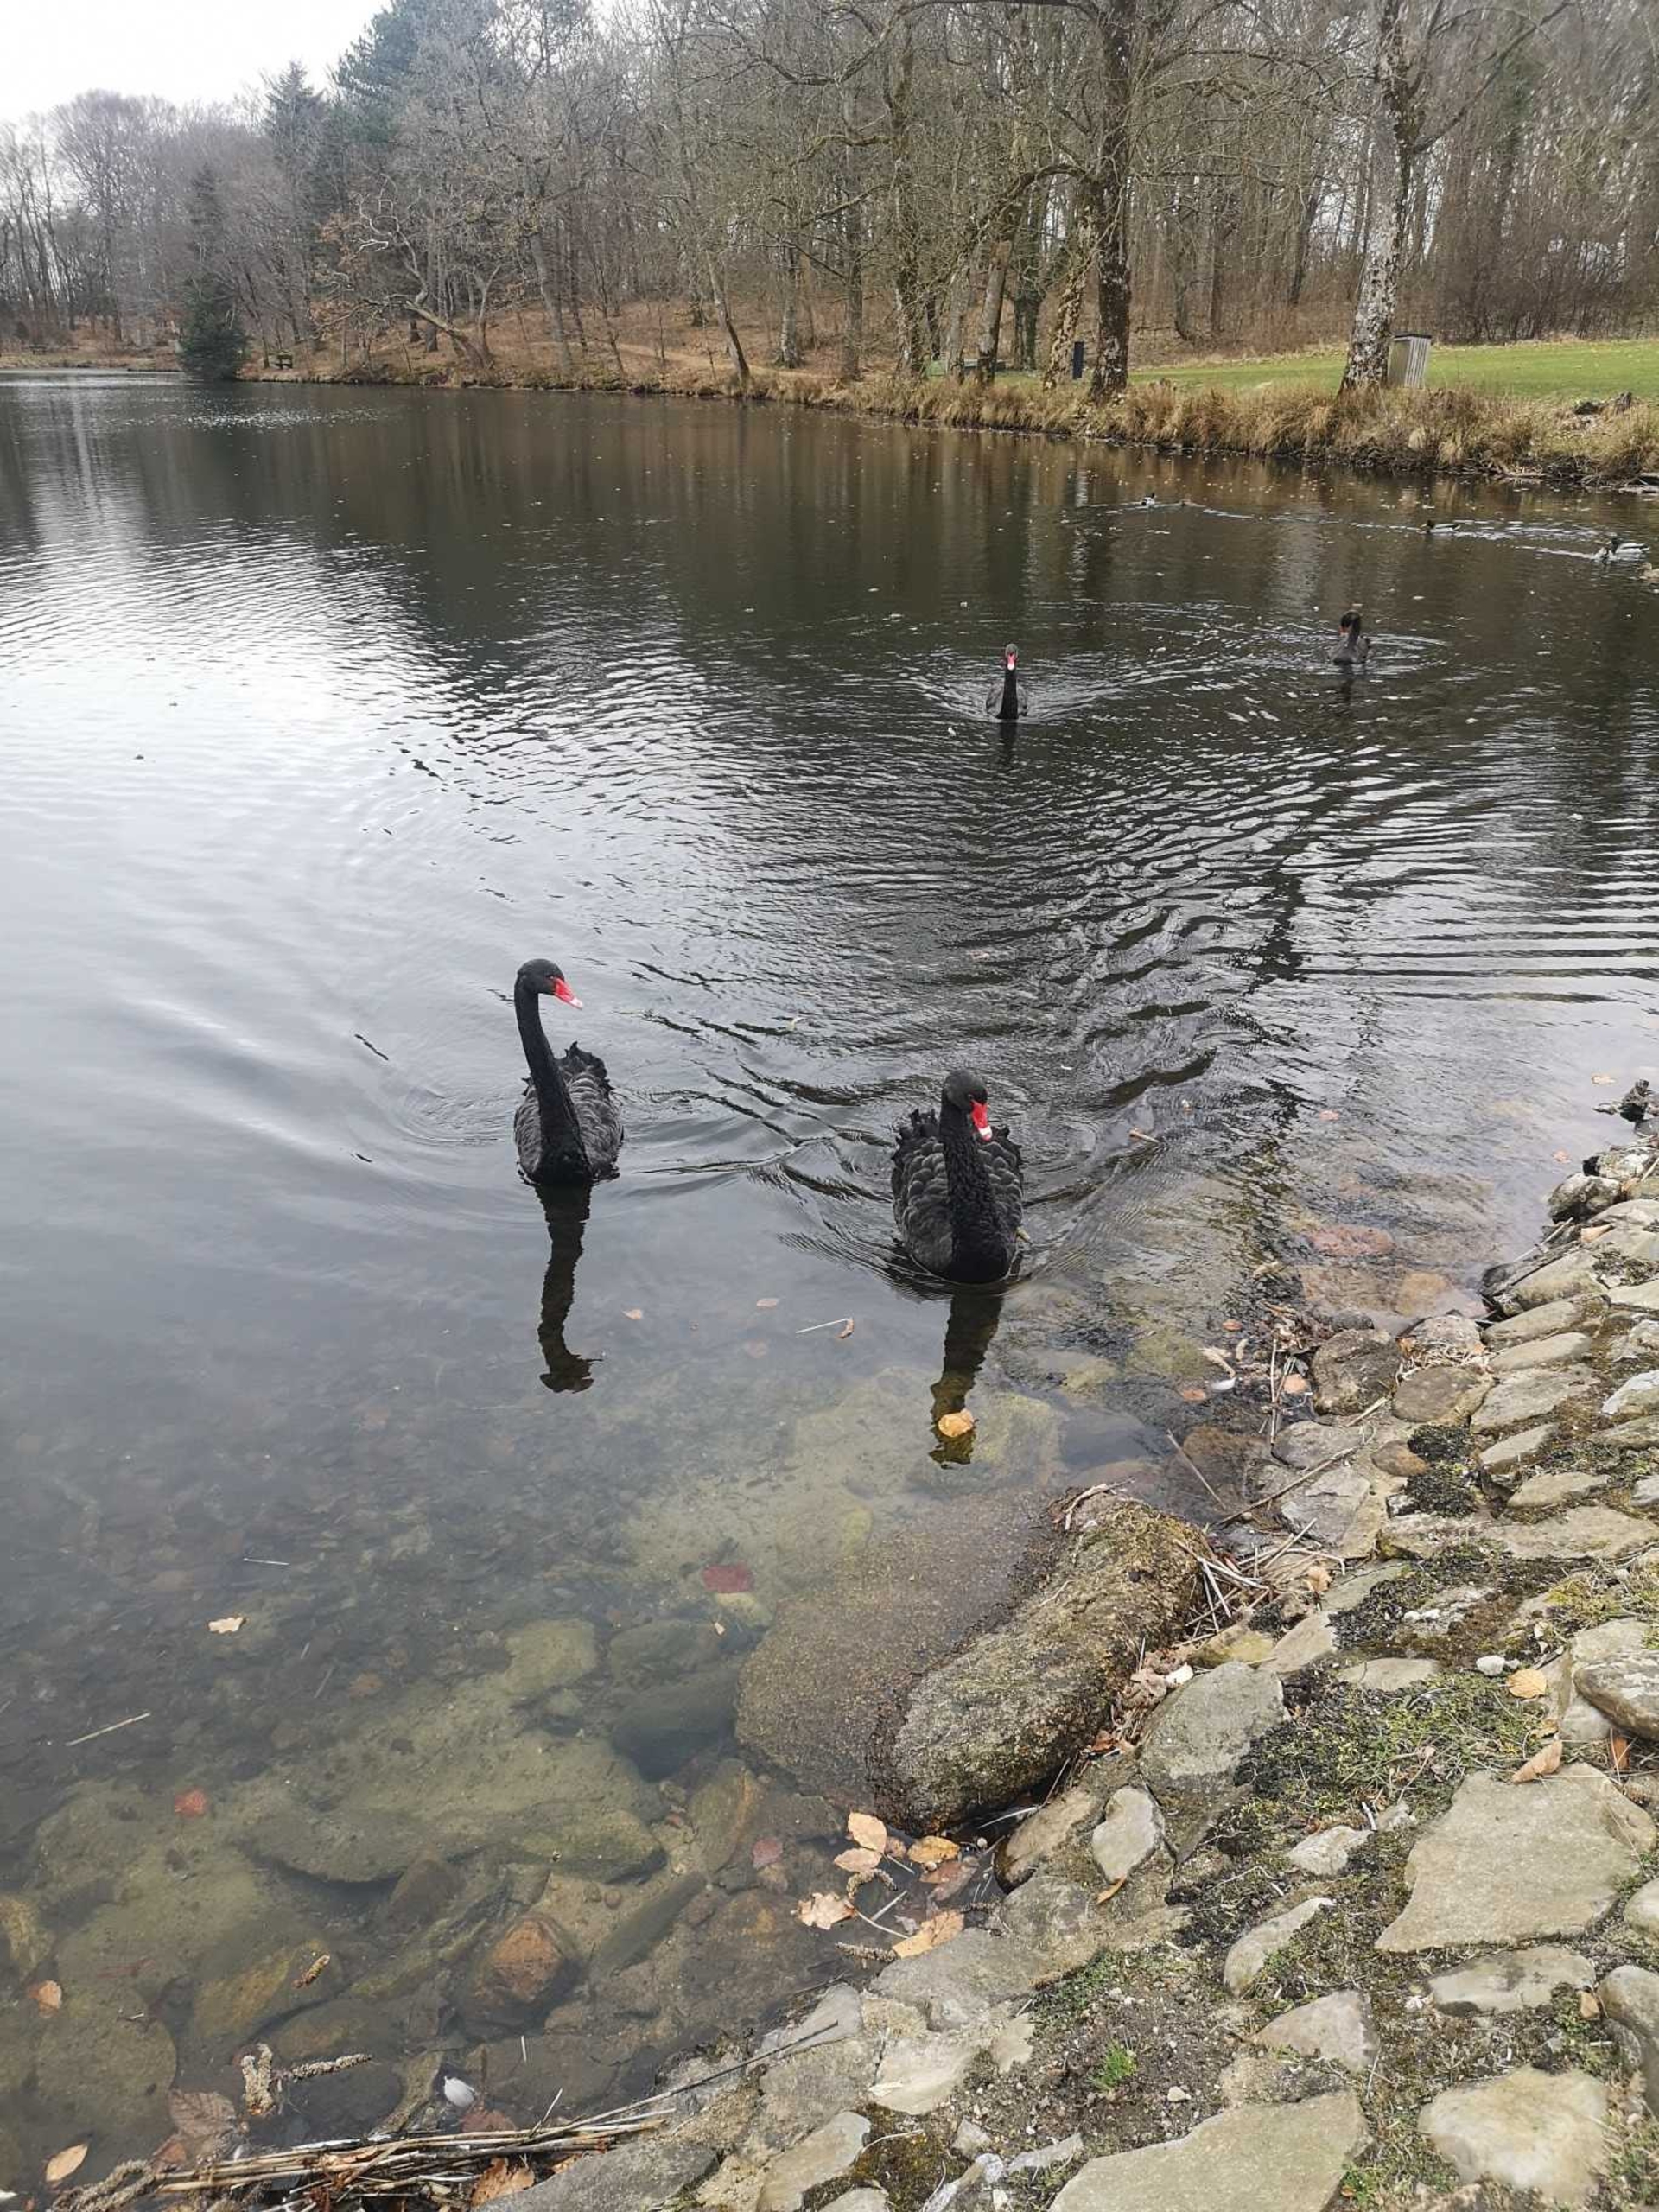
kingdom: Animalia
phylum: Chordata
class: Aves
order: Anseriformes
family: Anatidae
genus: Cygnus
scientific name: Cygnus atratus
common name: Sortsvane
